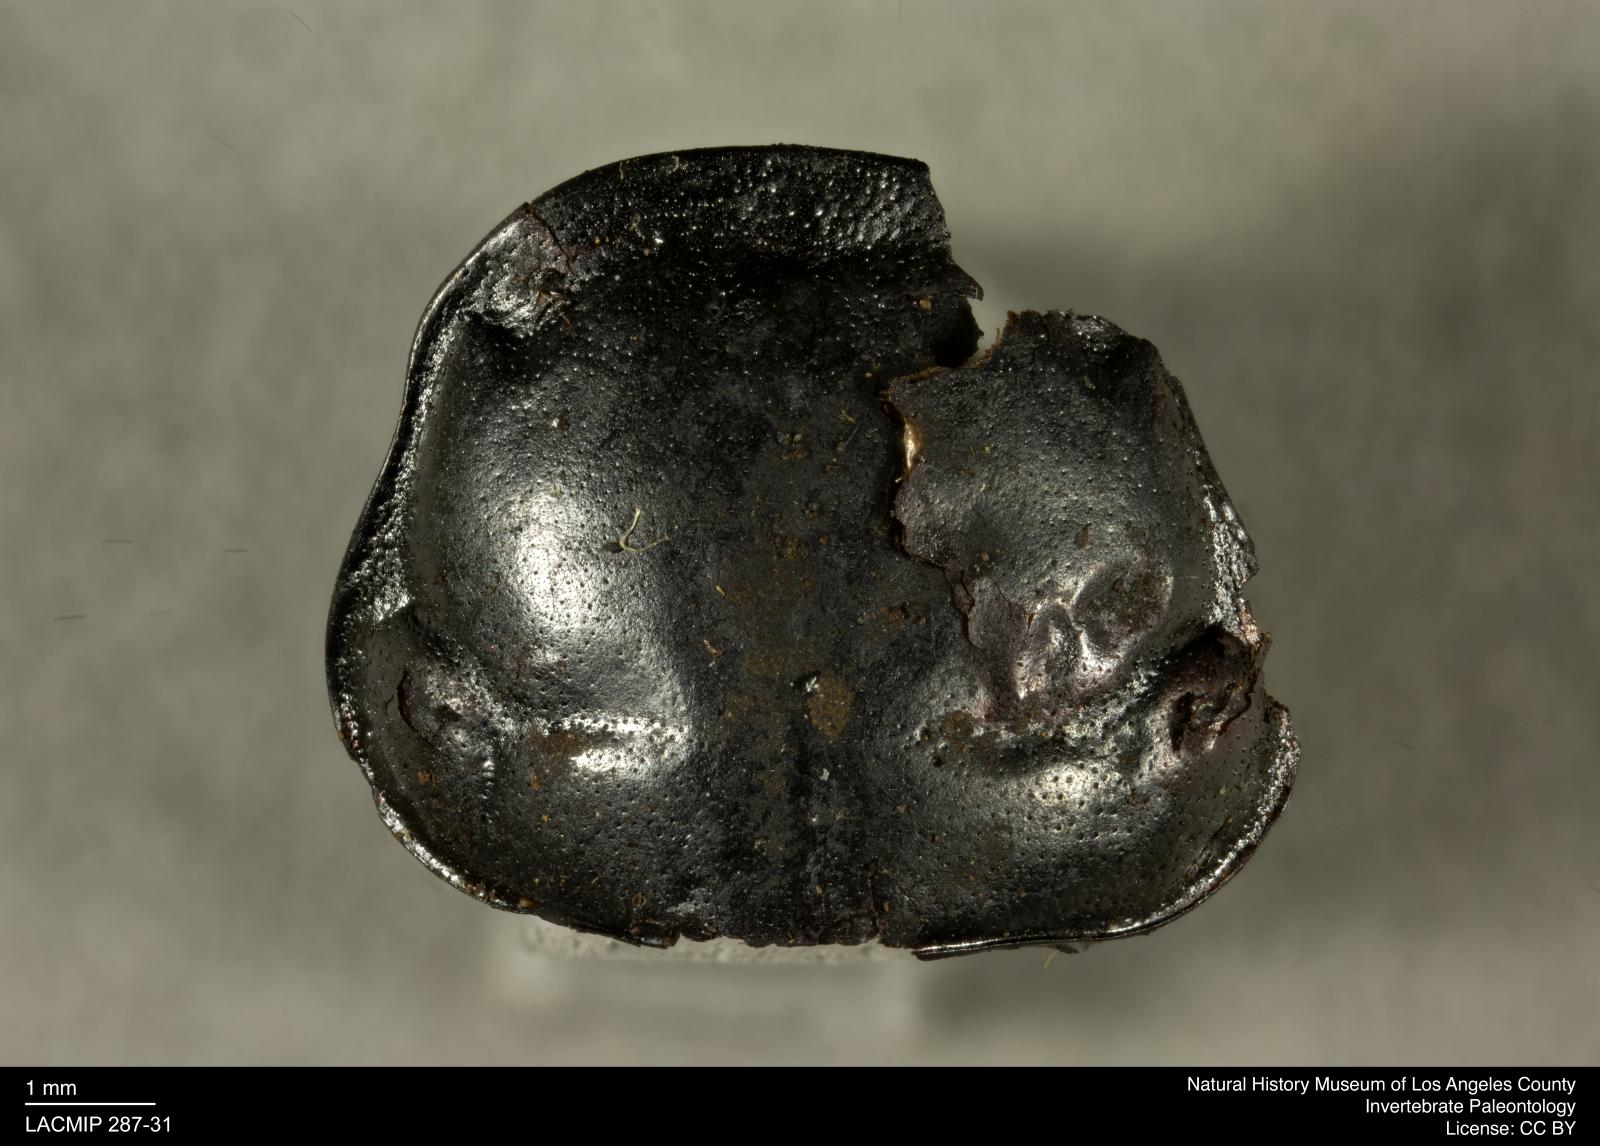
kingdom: Animalia
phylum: Arthropoda
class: Insecta
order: Coleoptera
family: Staphylinidae
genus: Nicrophorus
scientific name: Nicrophorus marginatus
